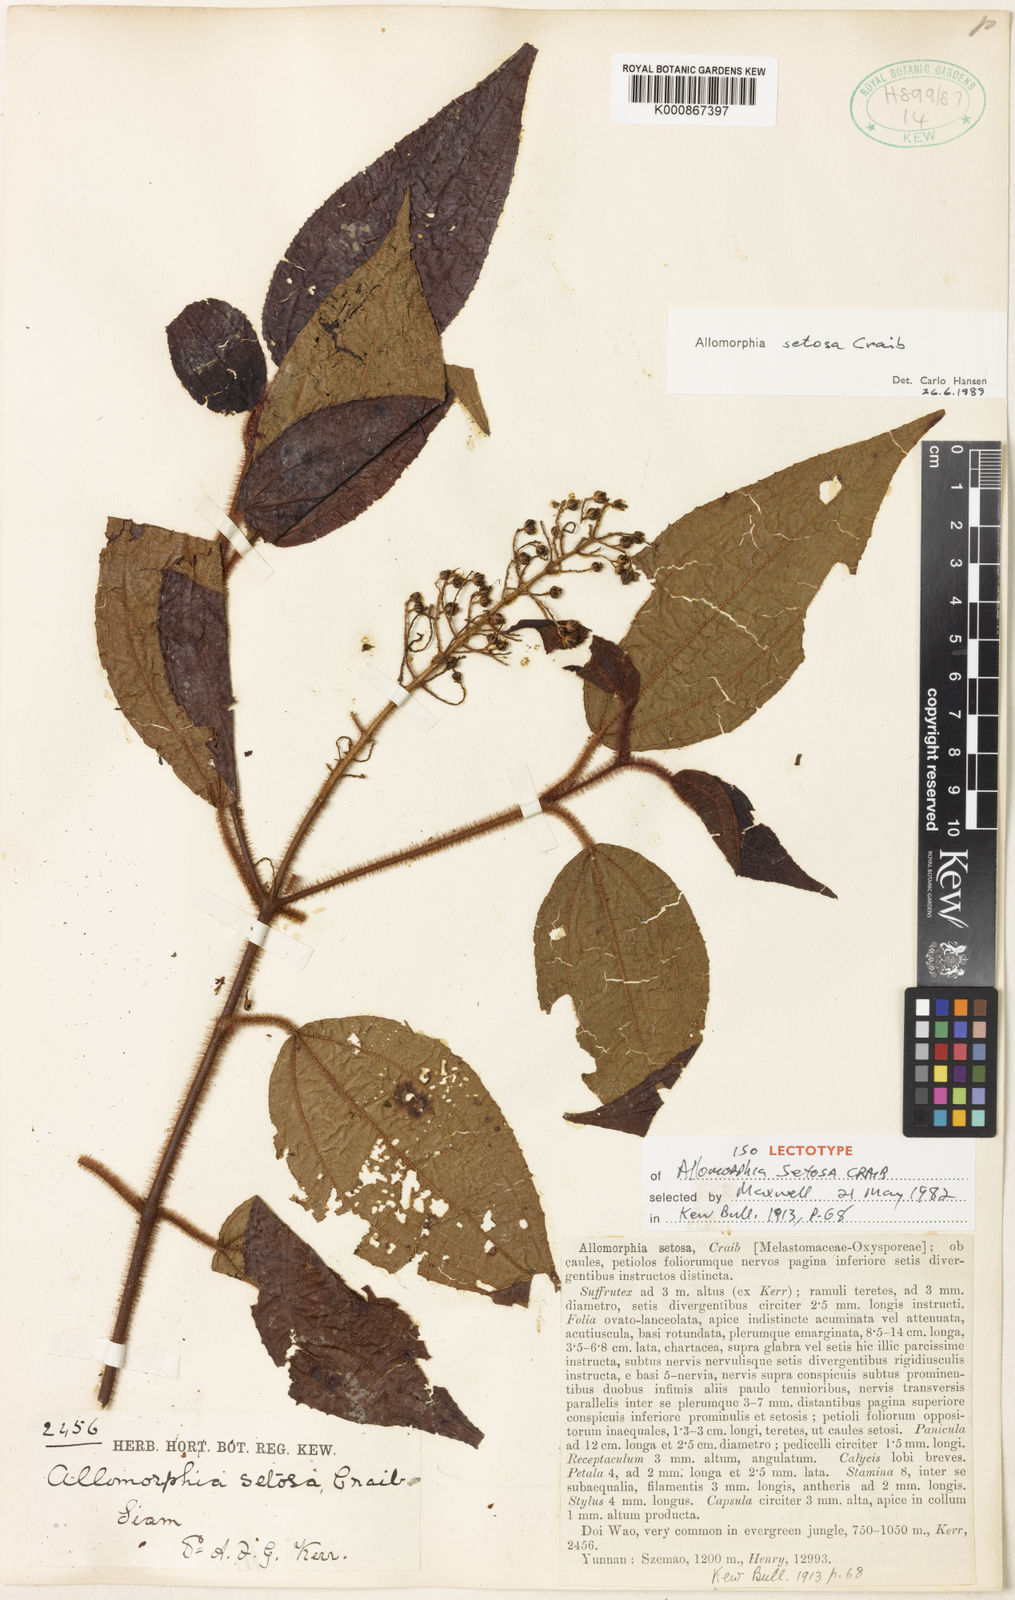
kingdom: Plantae
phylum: Tracheophyta
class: Magnoliopsida
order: Myrtales
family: Melastomataceae
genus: Allomorphia
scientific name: Allomorphia howellii
